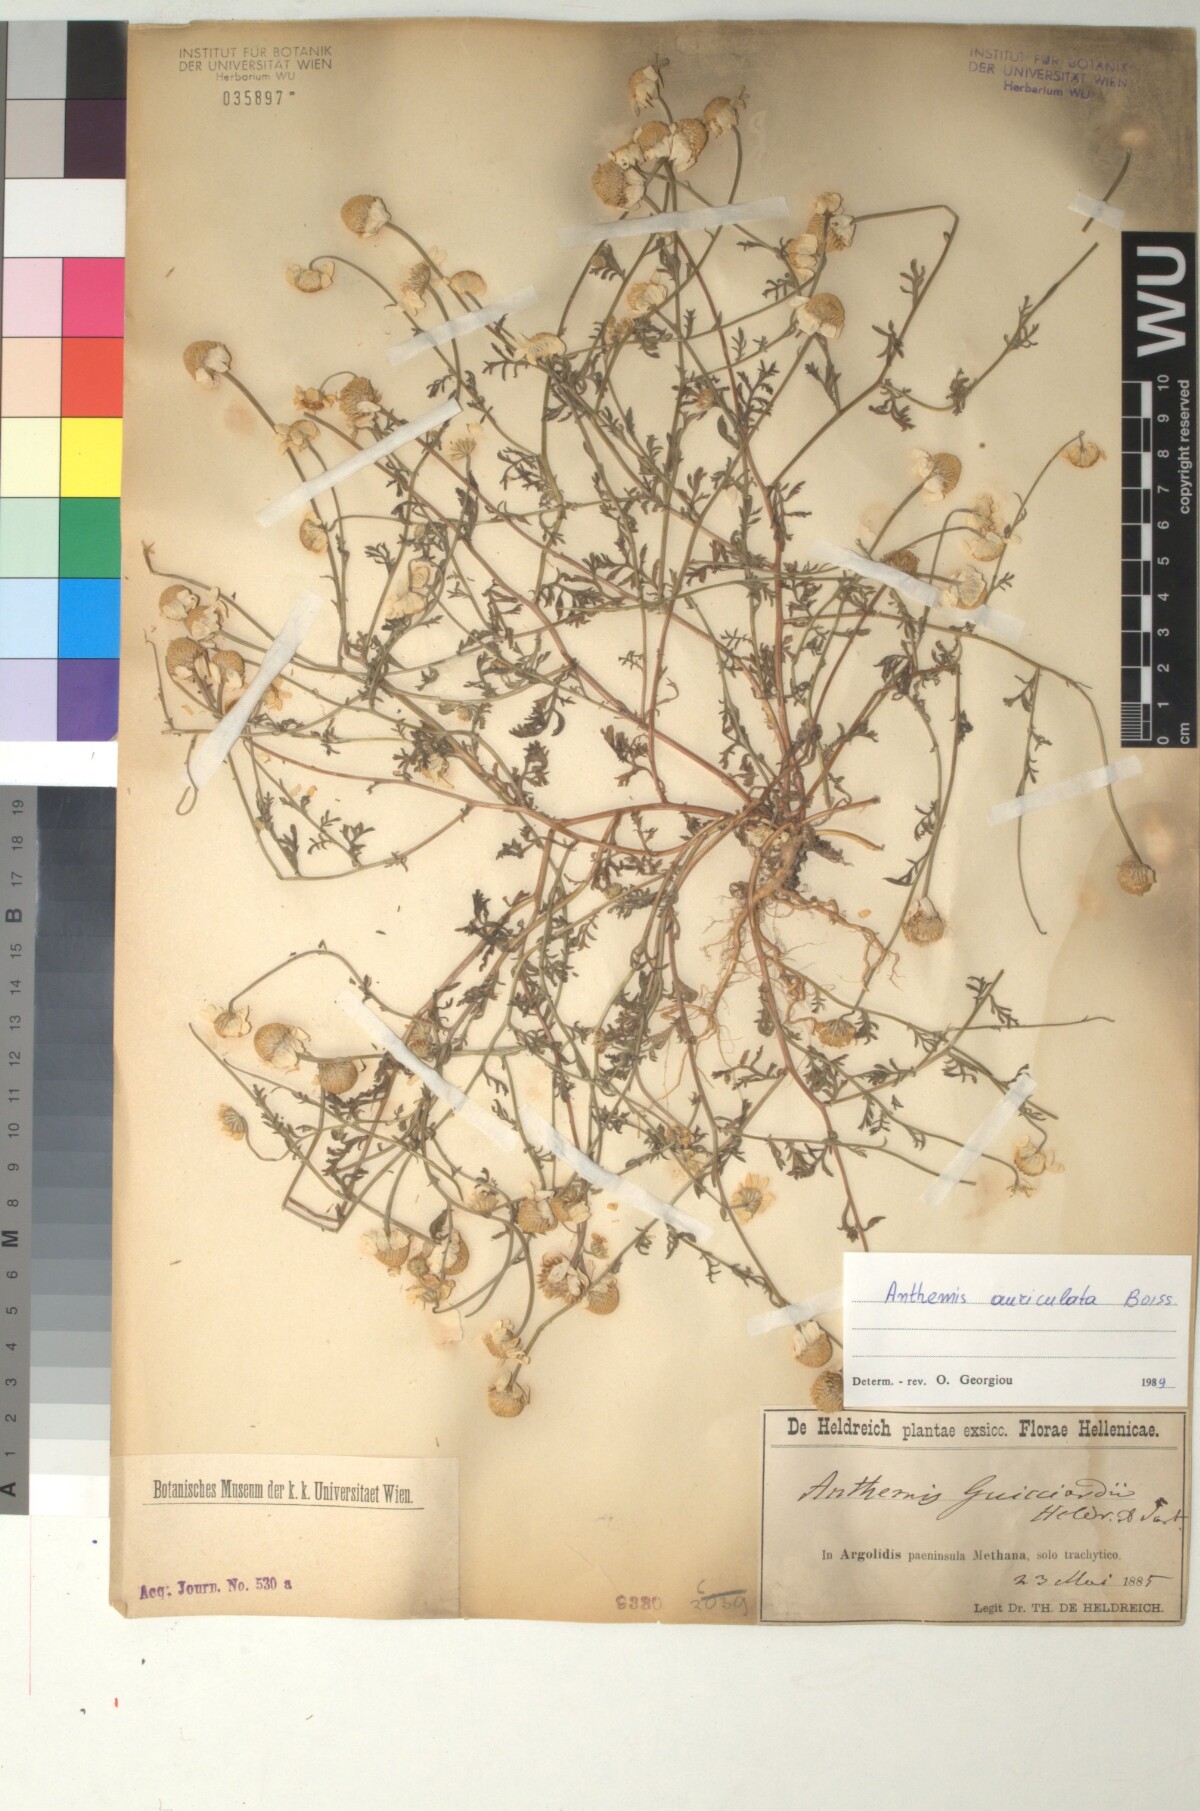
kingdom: Plantae
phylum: Tracheophyta
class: Magnoliopsida
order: Asterales
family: Asteraceae
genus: Anthemis
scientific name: Anthemis auriculata
